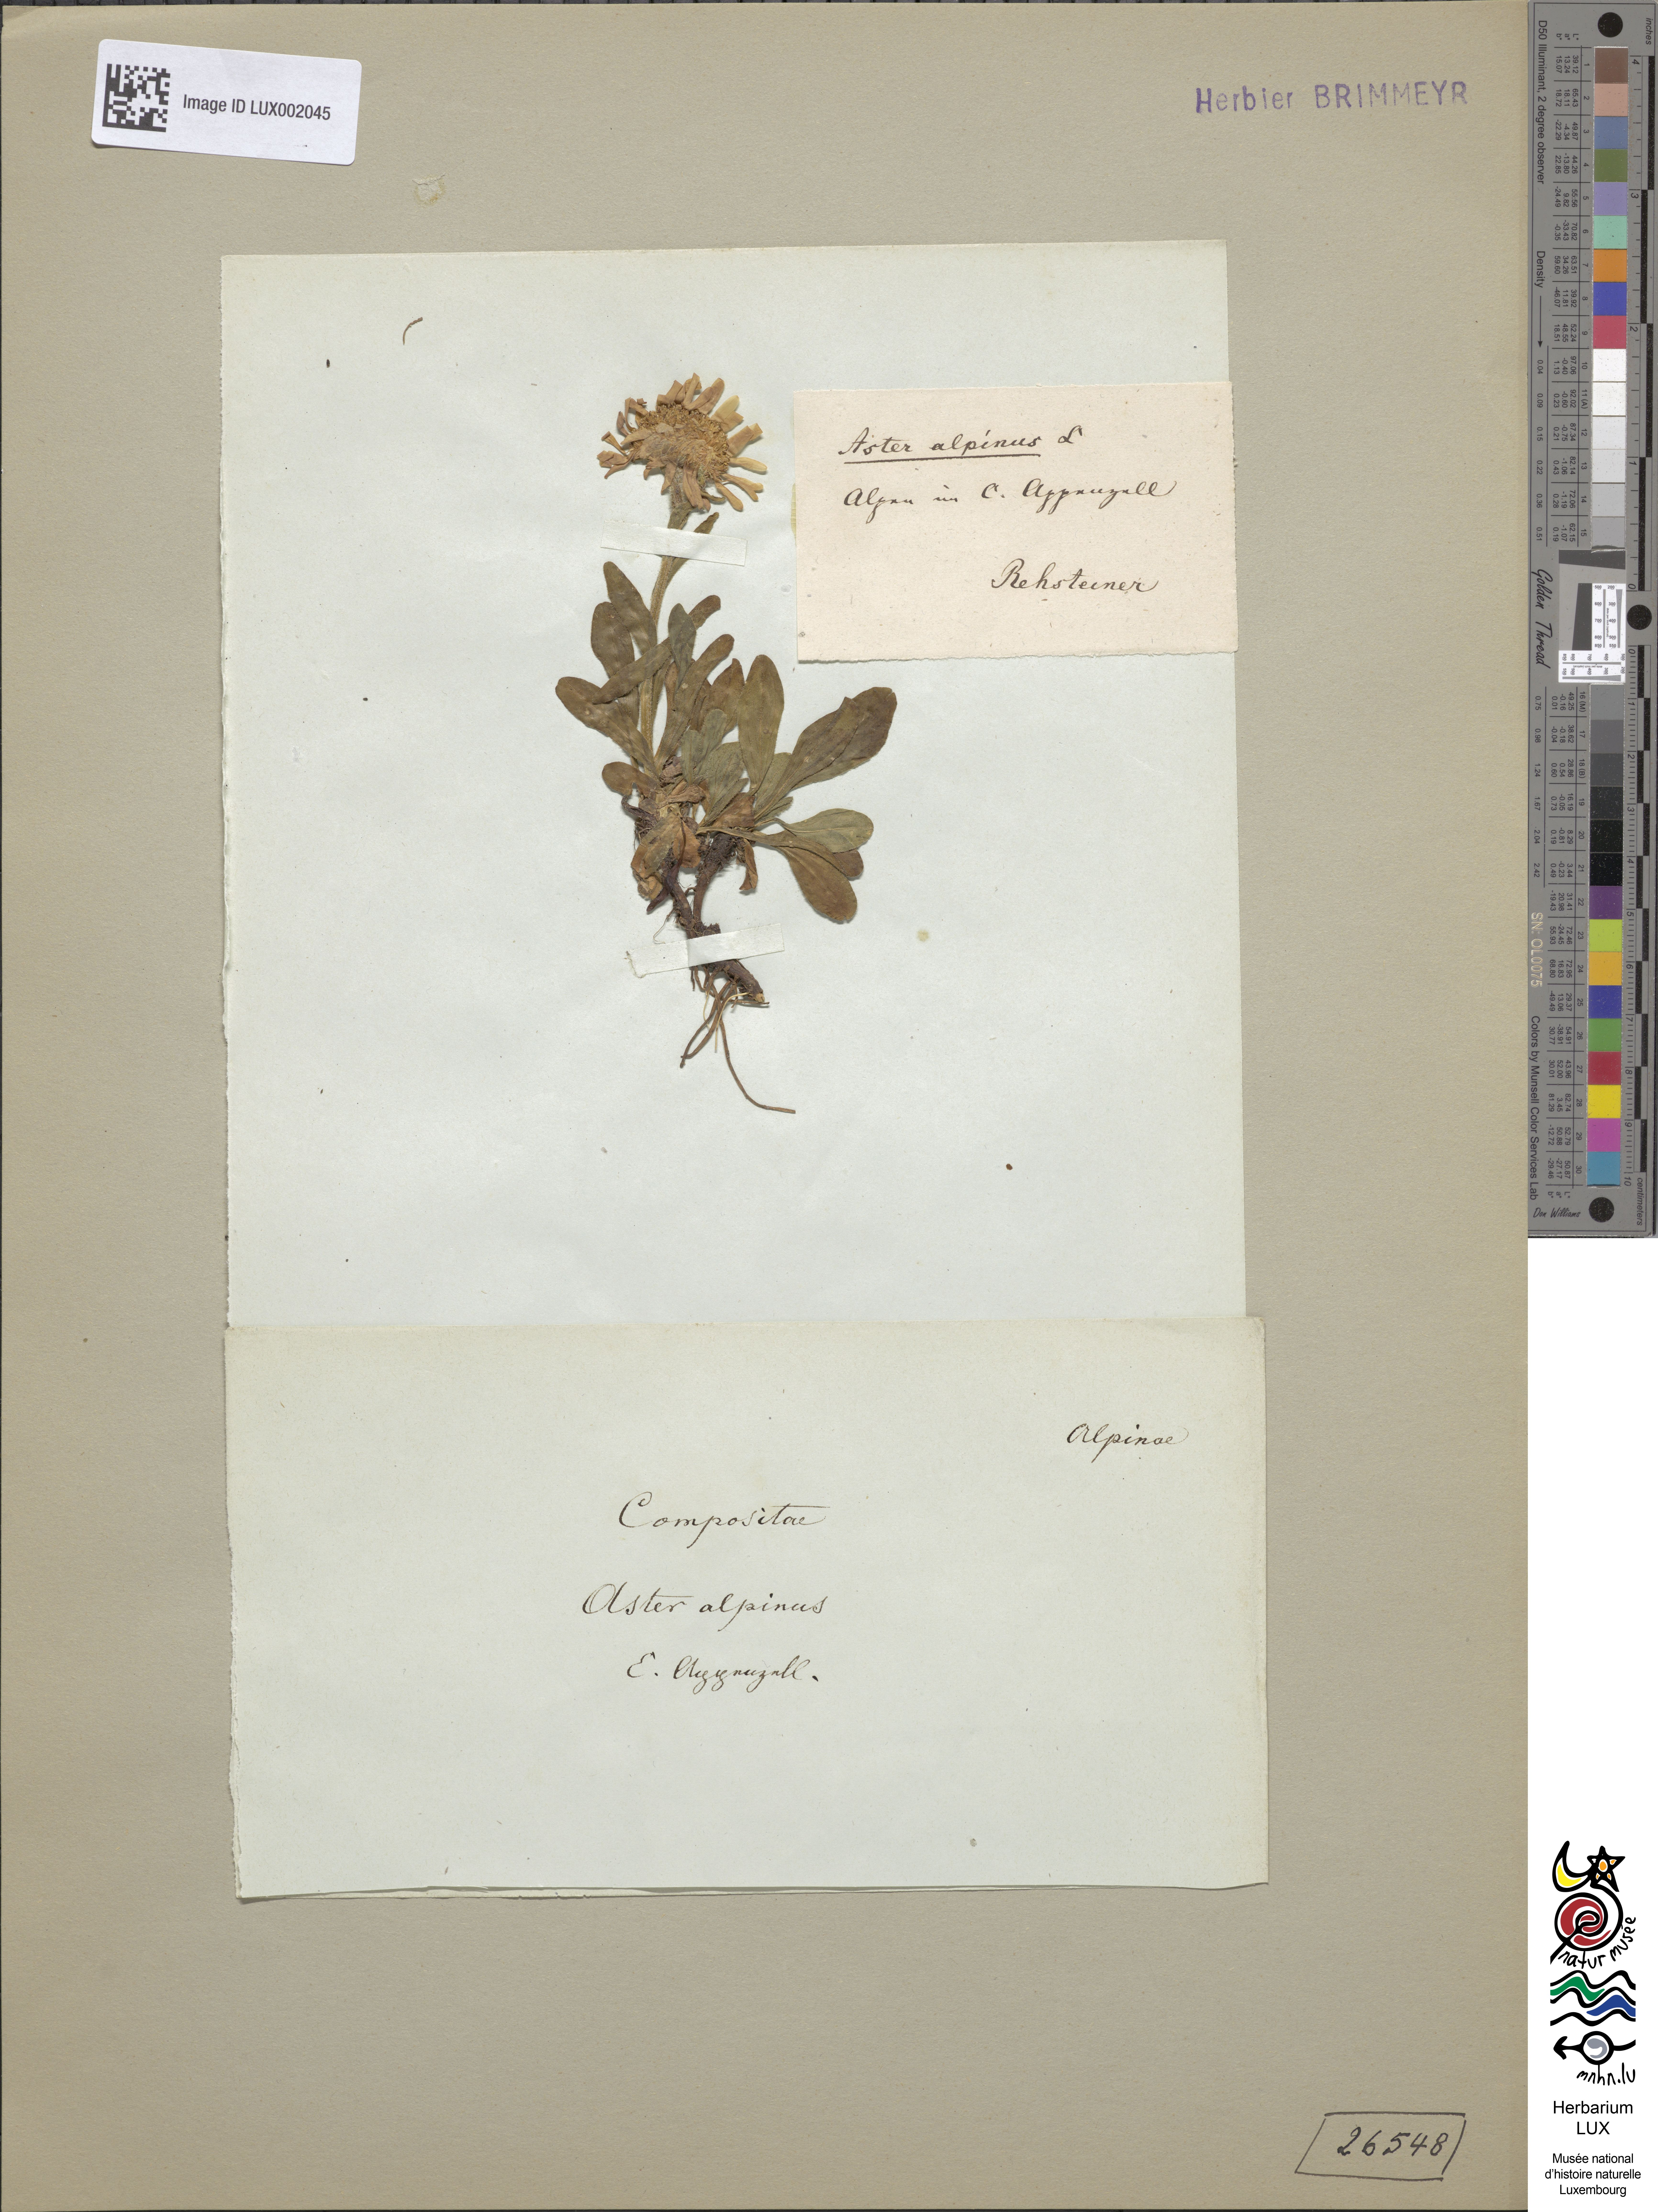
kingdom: Plantae
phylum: Tracheophyta
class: Magnoliopsida
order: Asterales
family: Asteraceae
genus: Aster
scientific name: Aster alpinus
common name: Alpine aster
